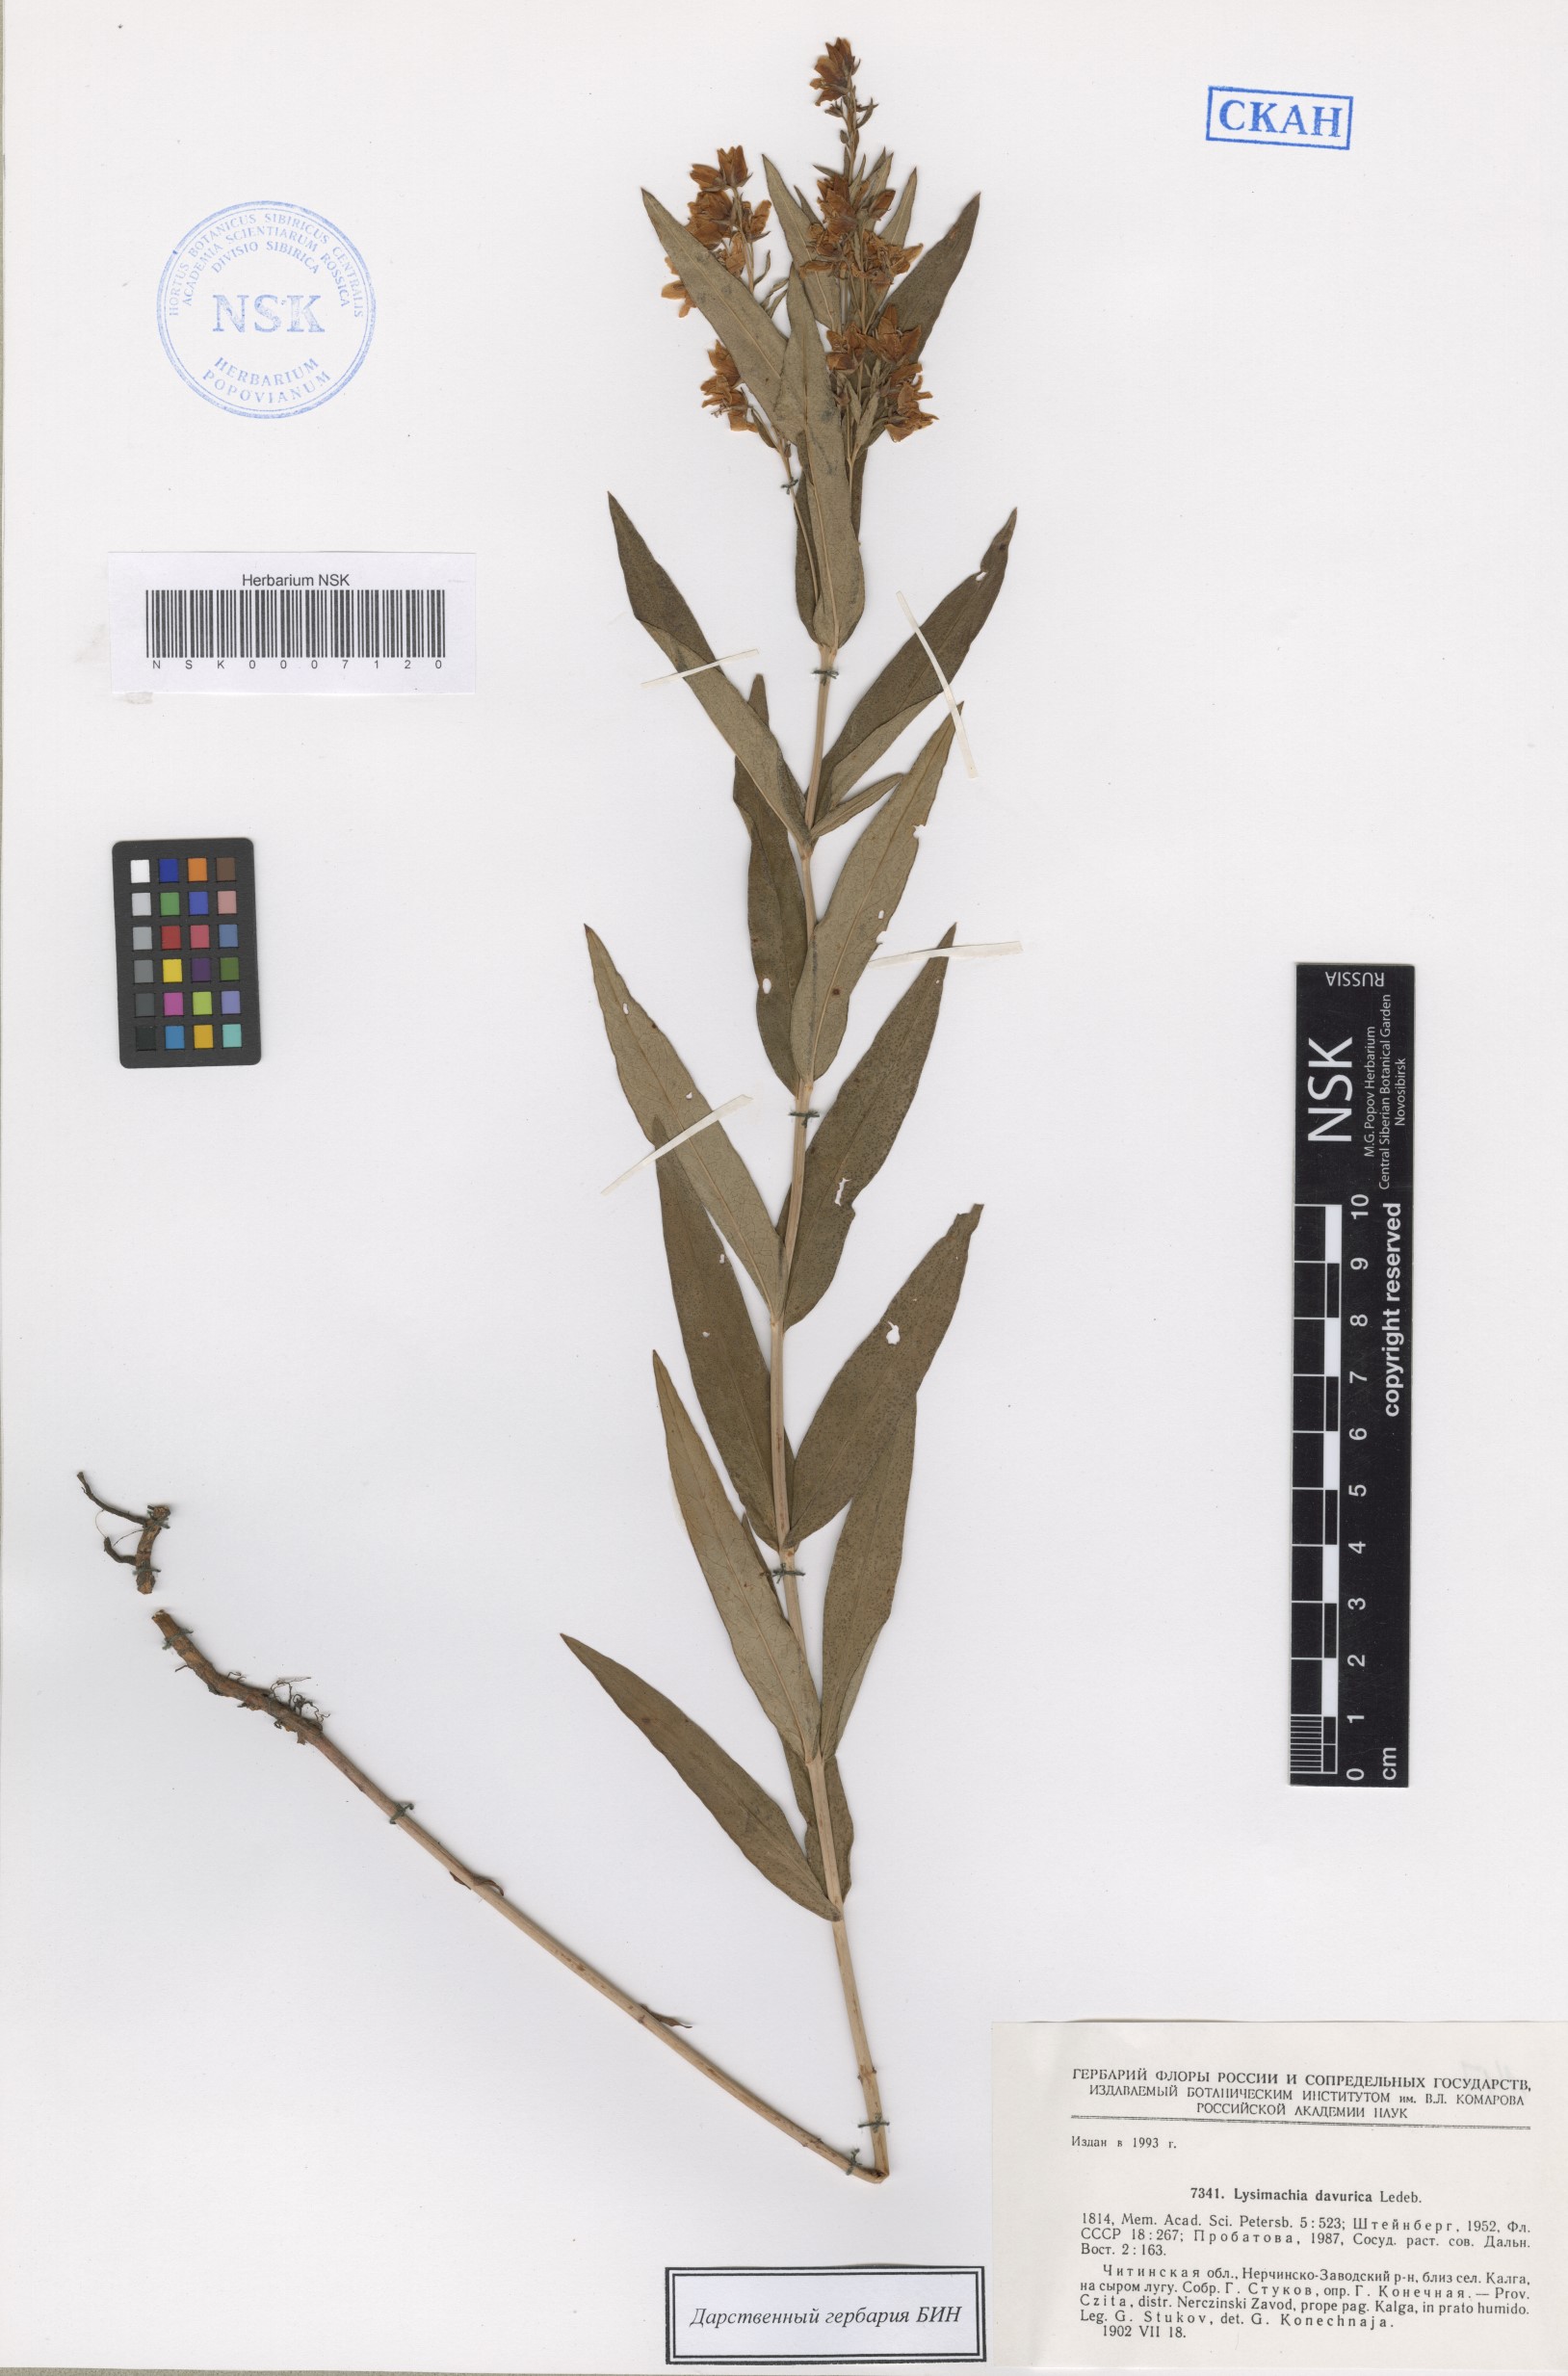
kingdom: Plantae
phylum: Tracheophyta
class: Magnoliopsida
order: Ericales
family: Primulaceae
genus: Lysimachia
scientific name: Lysimachia davurica
